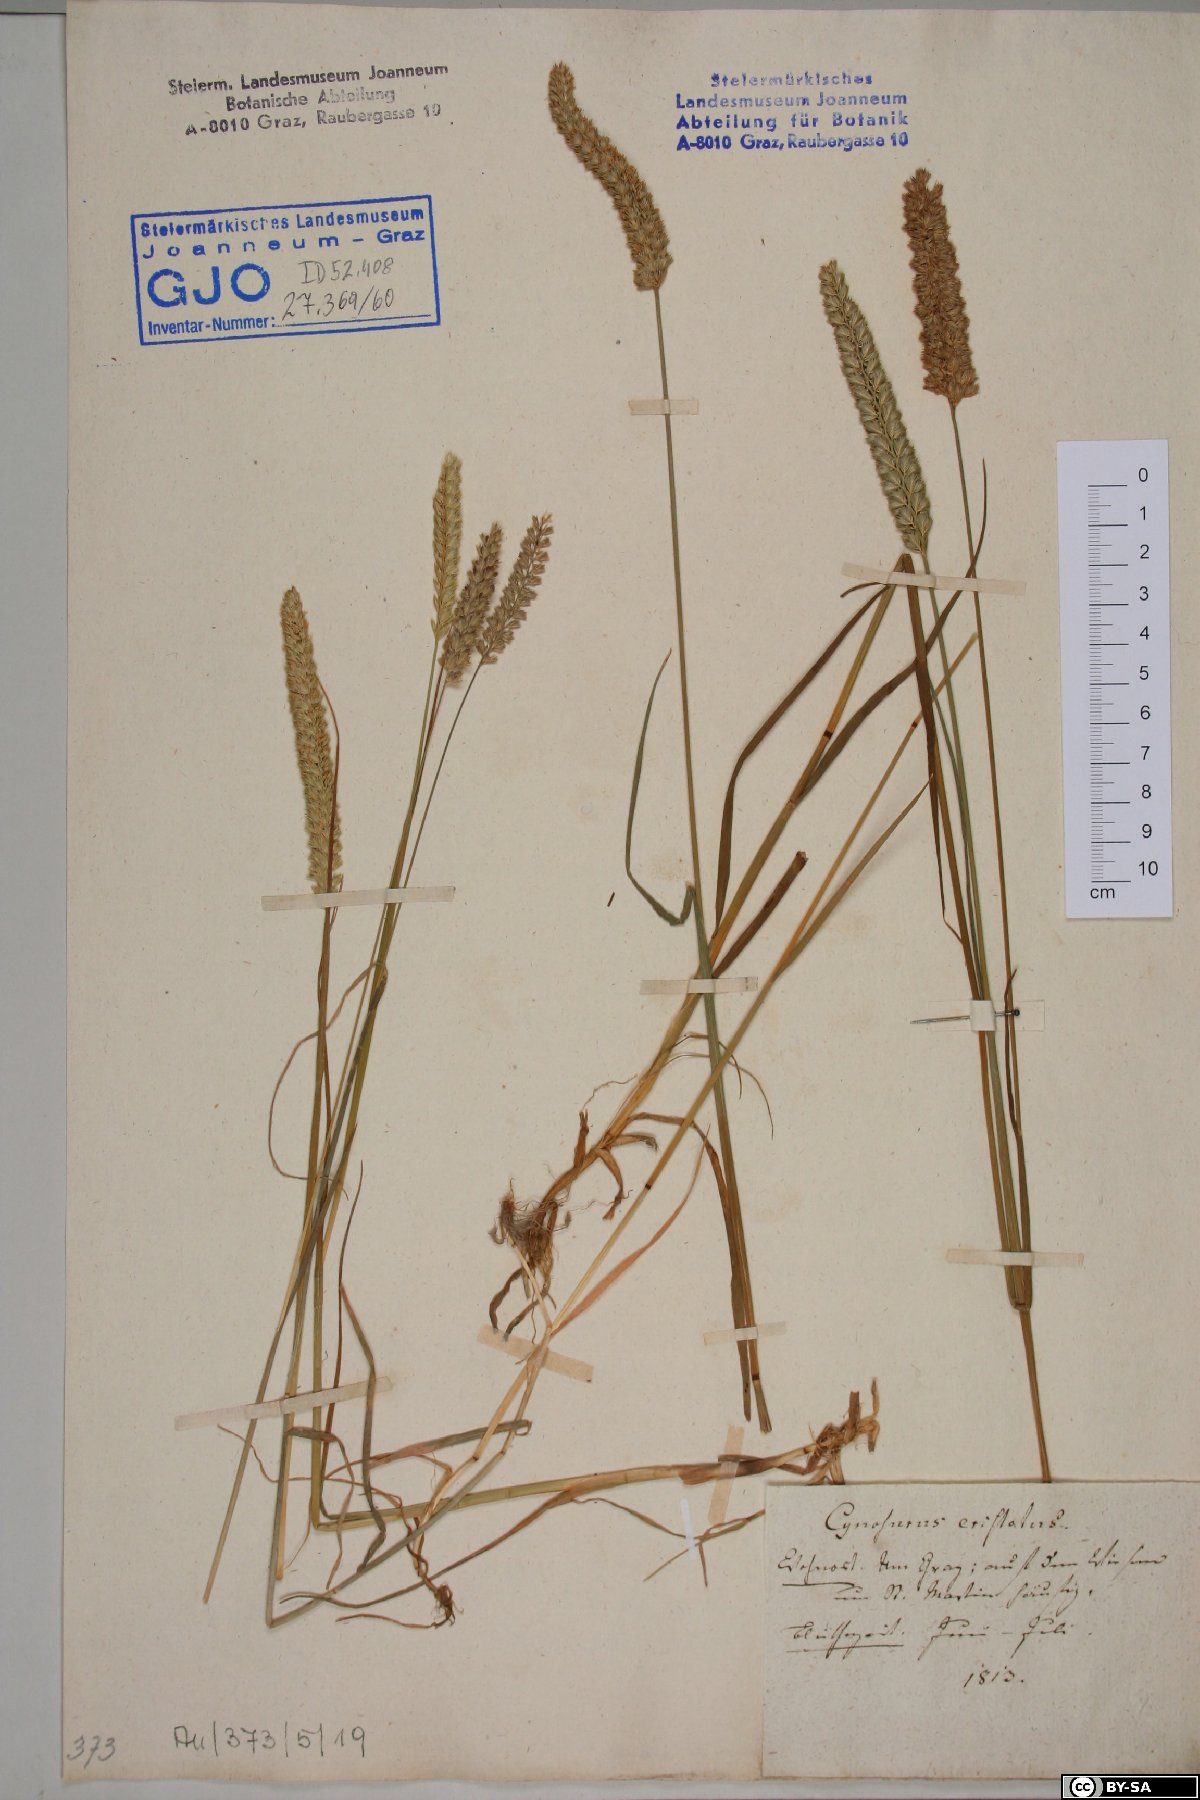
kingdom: Plantae
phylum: Tracheophyta
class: Liliopsida
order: Poales
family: Poaceae
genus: Cynosurus
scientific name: Cynosurus cristatus
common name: Crested dog's-tail
